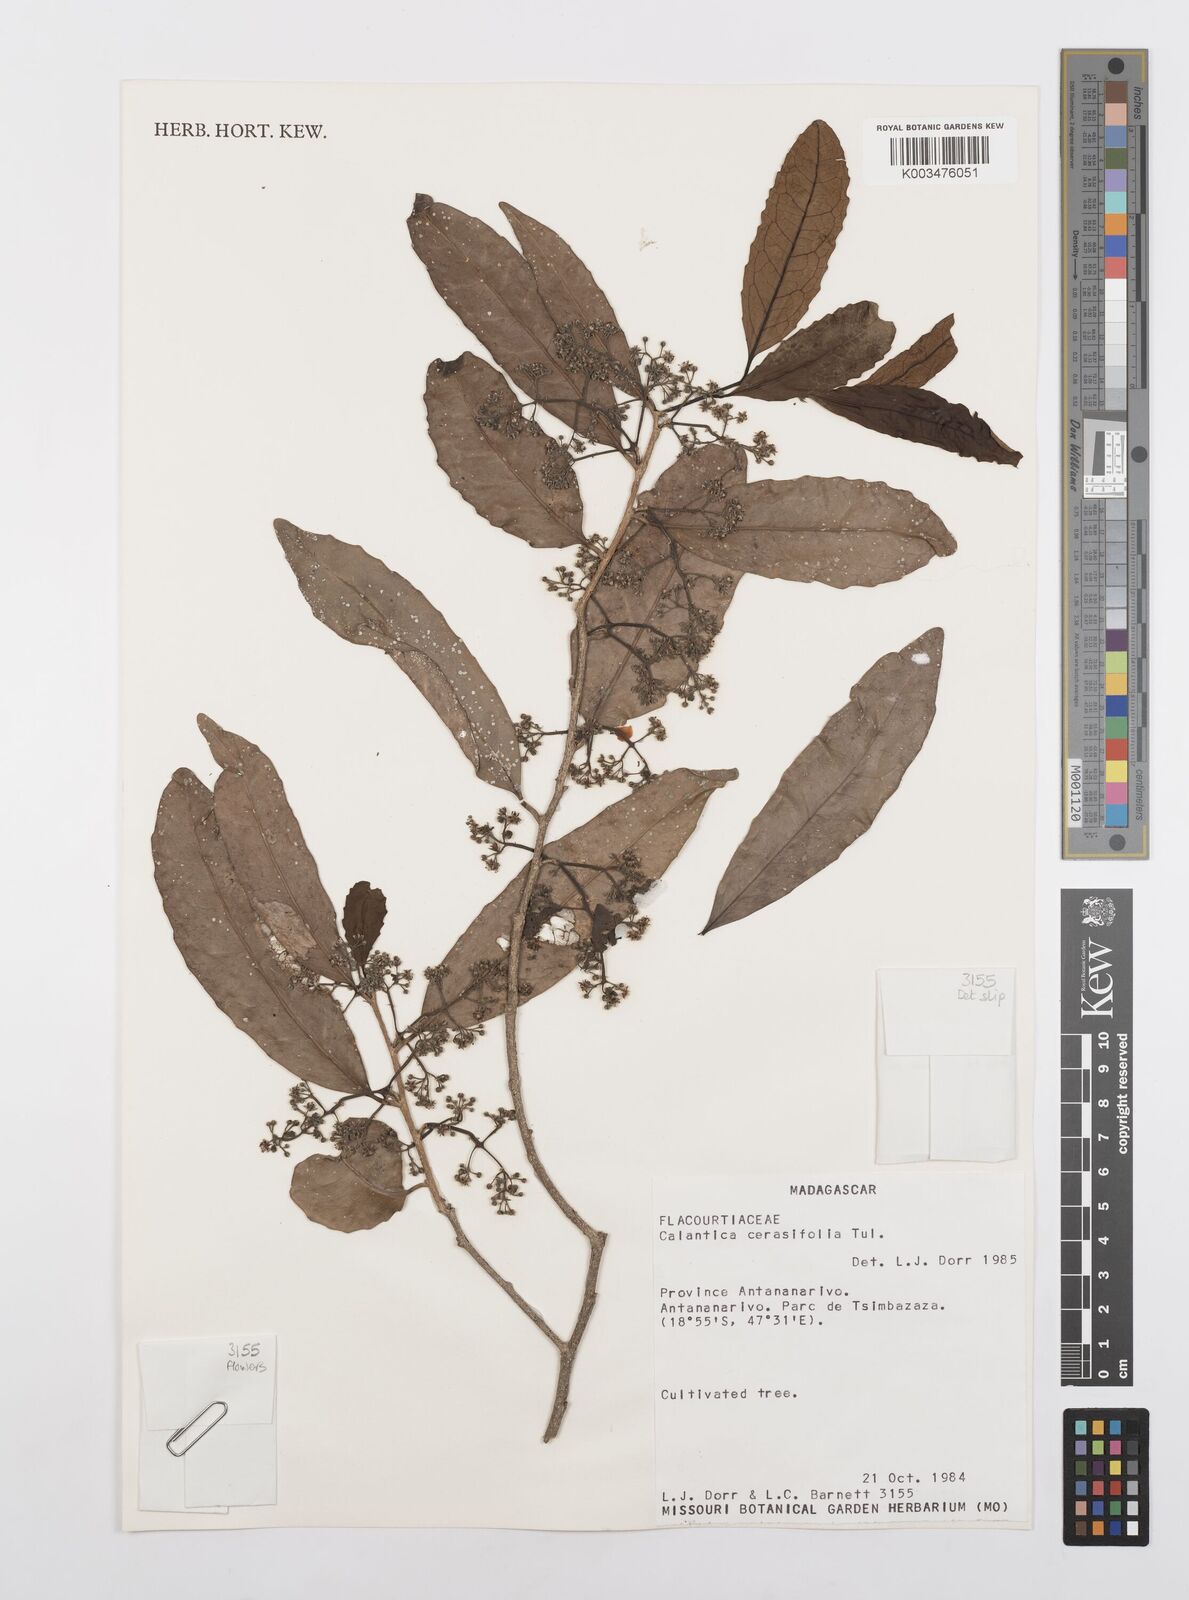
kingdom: Plantae
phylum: Tracheophyta
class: Magnoliopsida
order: Malpighiales
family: Salicaceae
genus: Calantica
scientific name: Calantica cerasifolia
